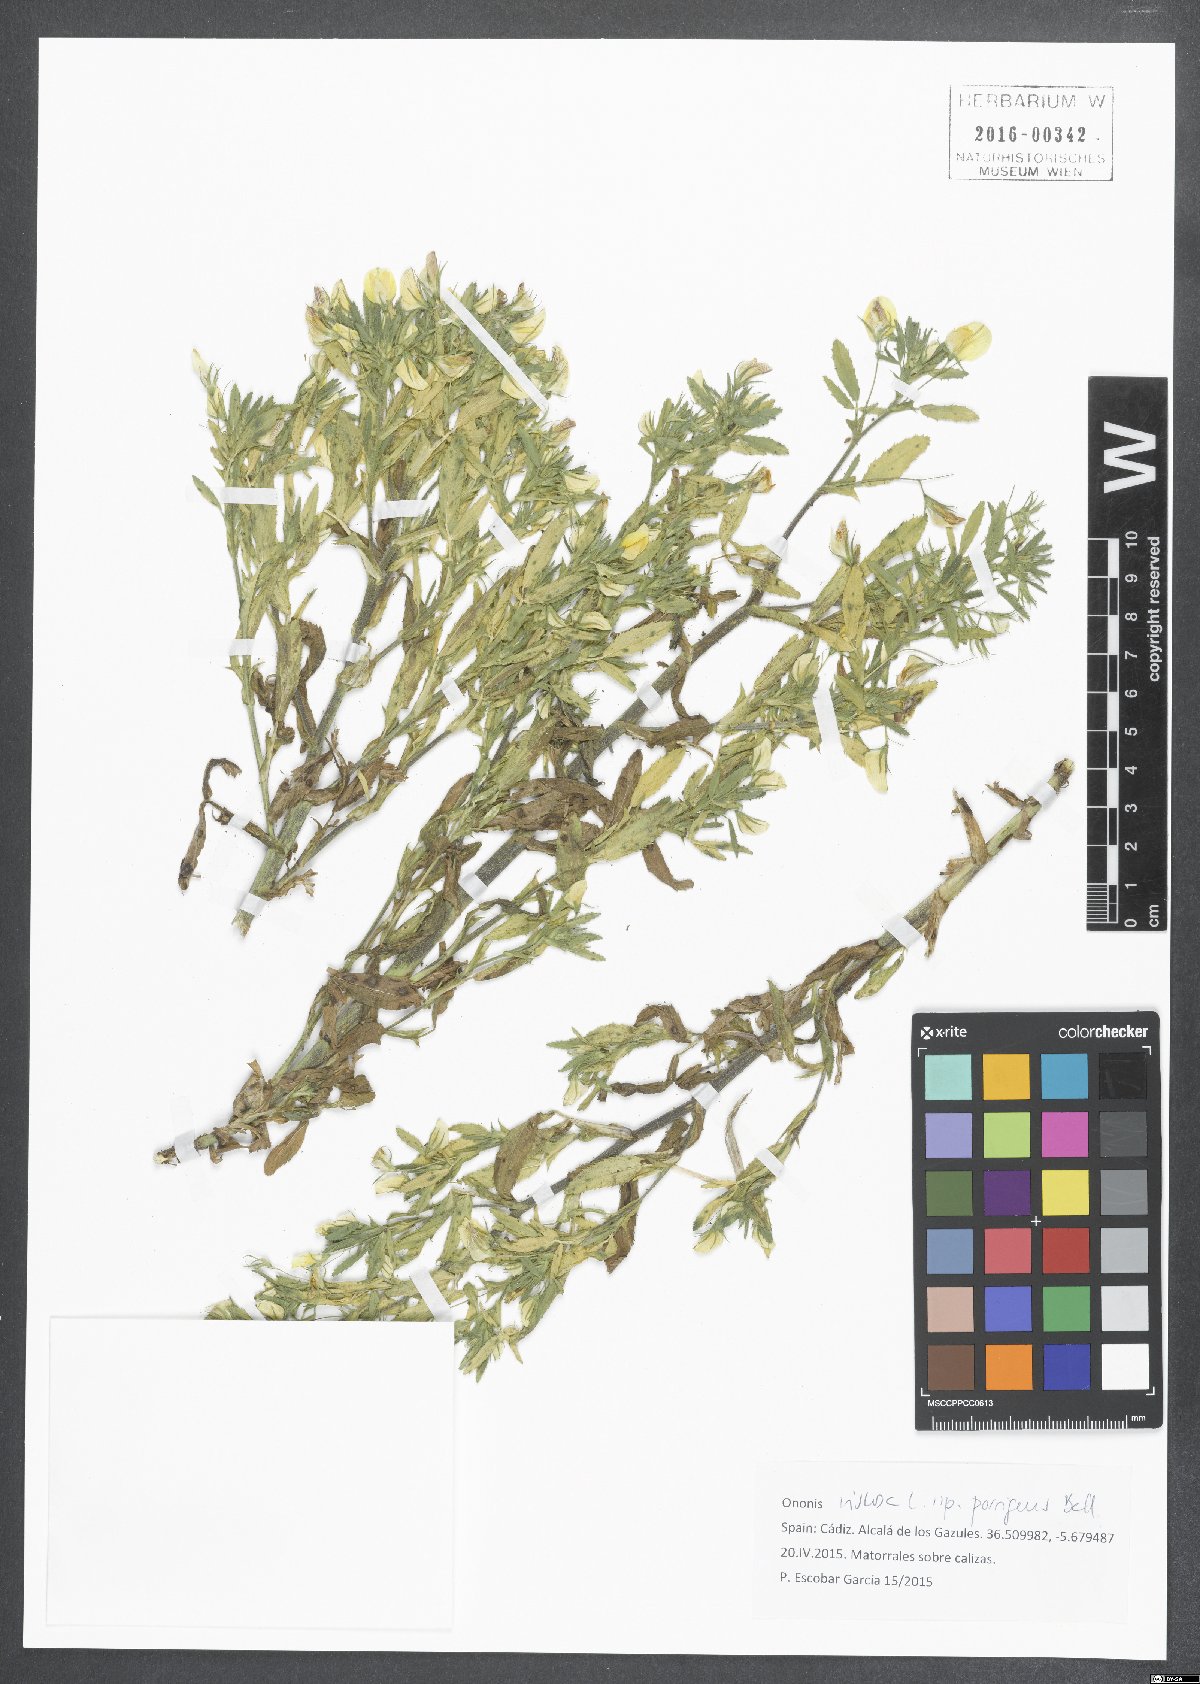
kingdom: Plantae
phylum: Tracheophyta
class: Magnoliopsida
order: Fabales
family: Fabaceae
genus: Ononis
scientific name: Ononis viscosa
